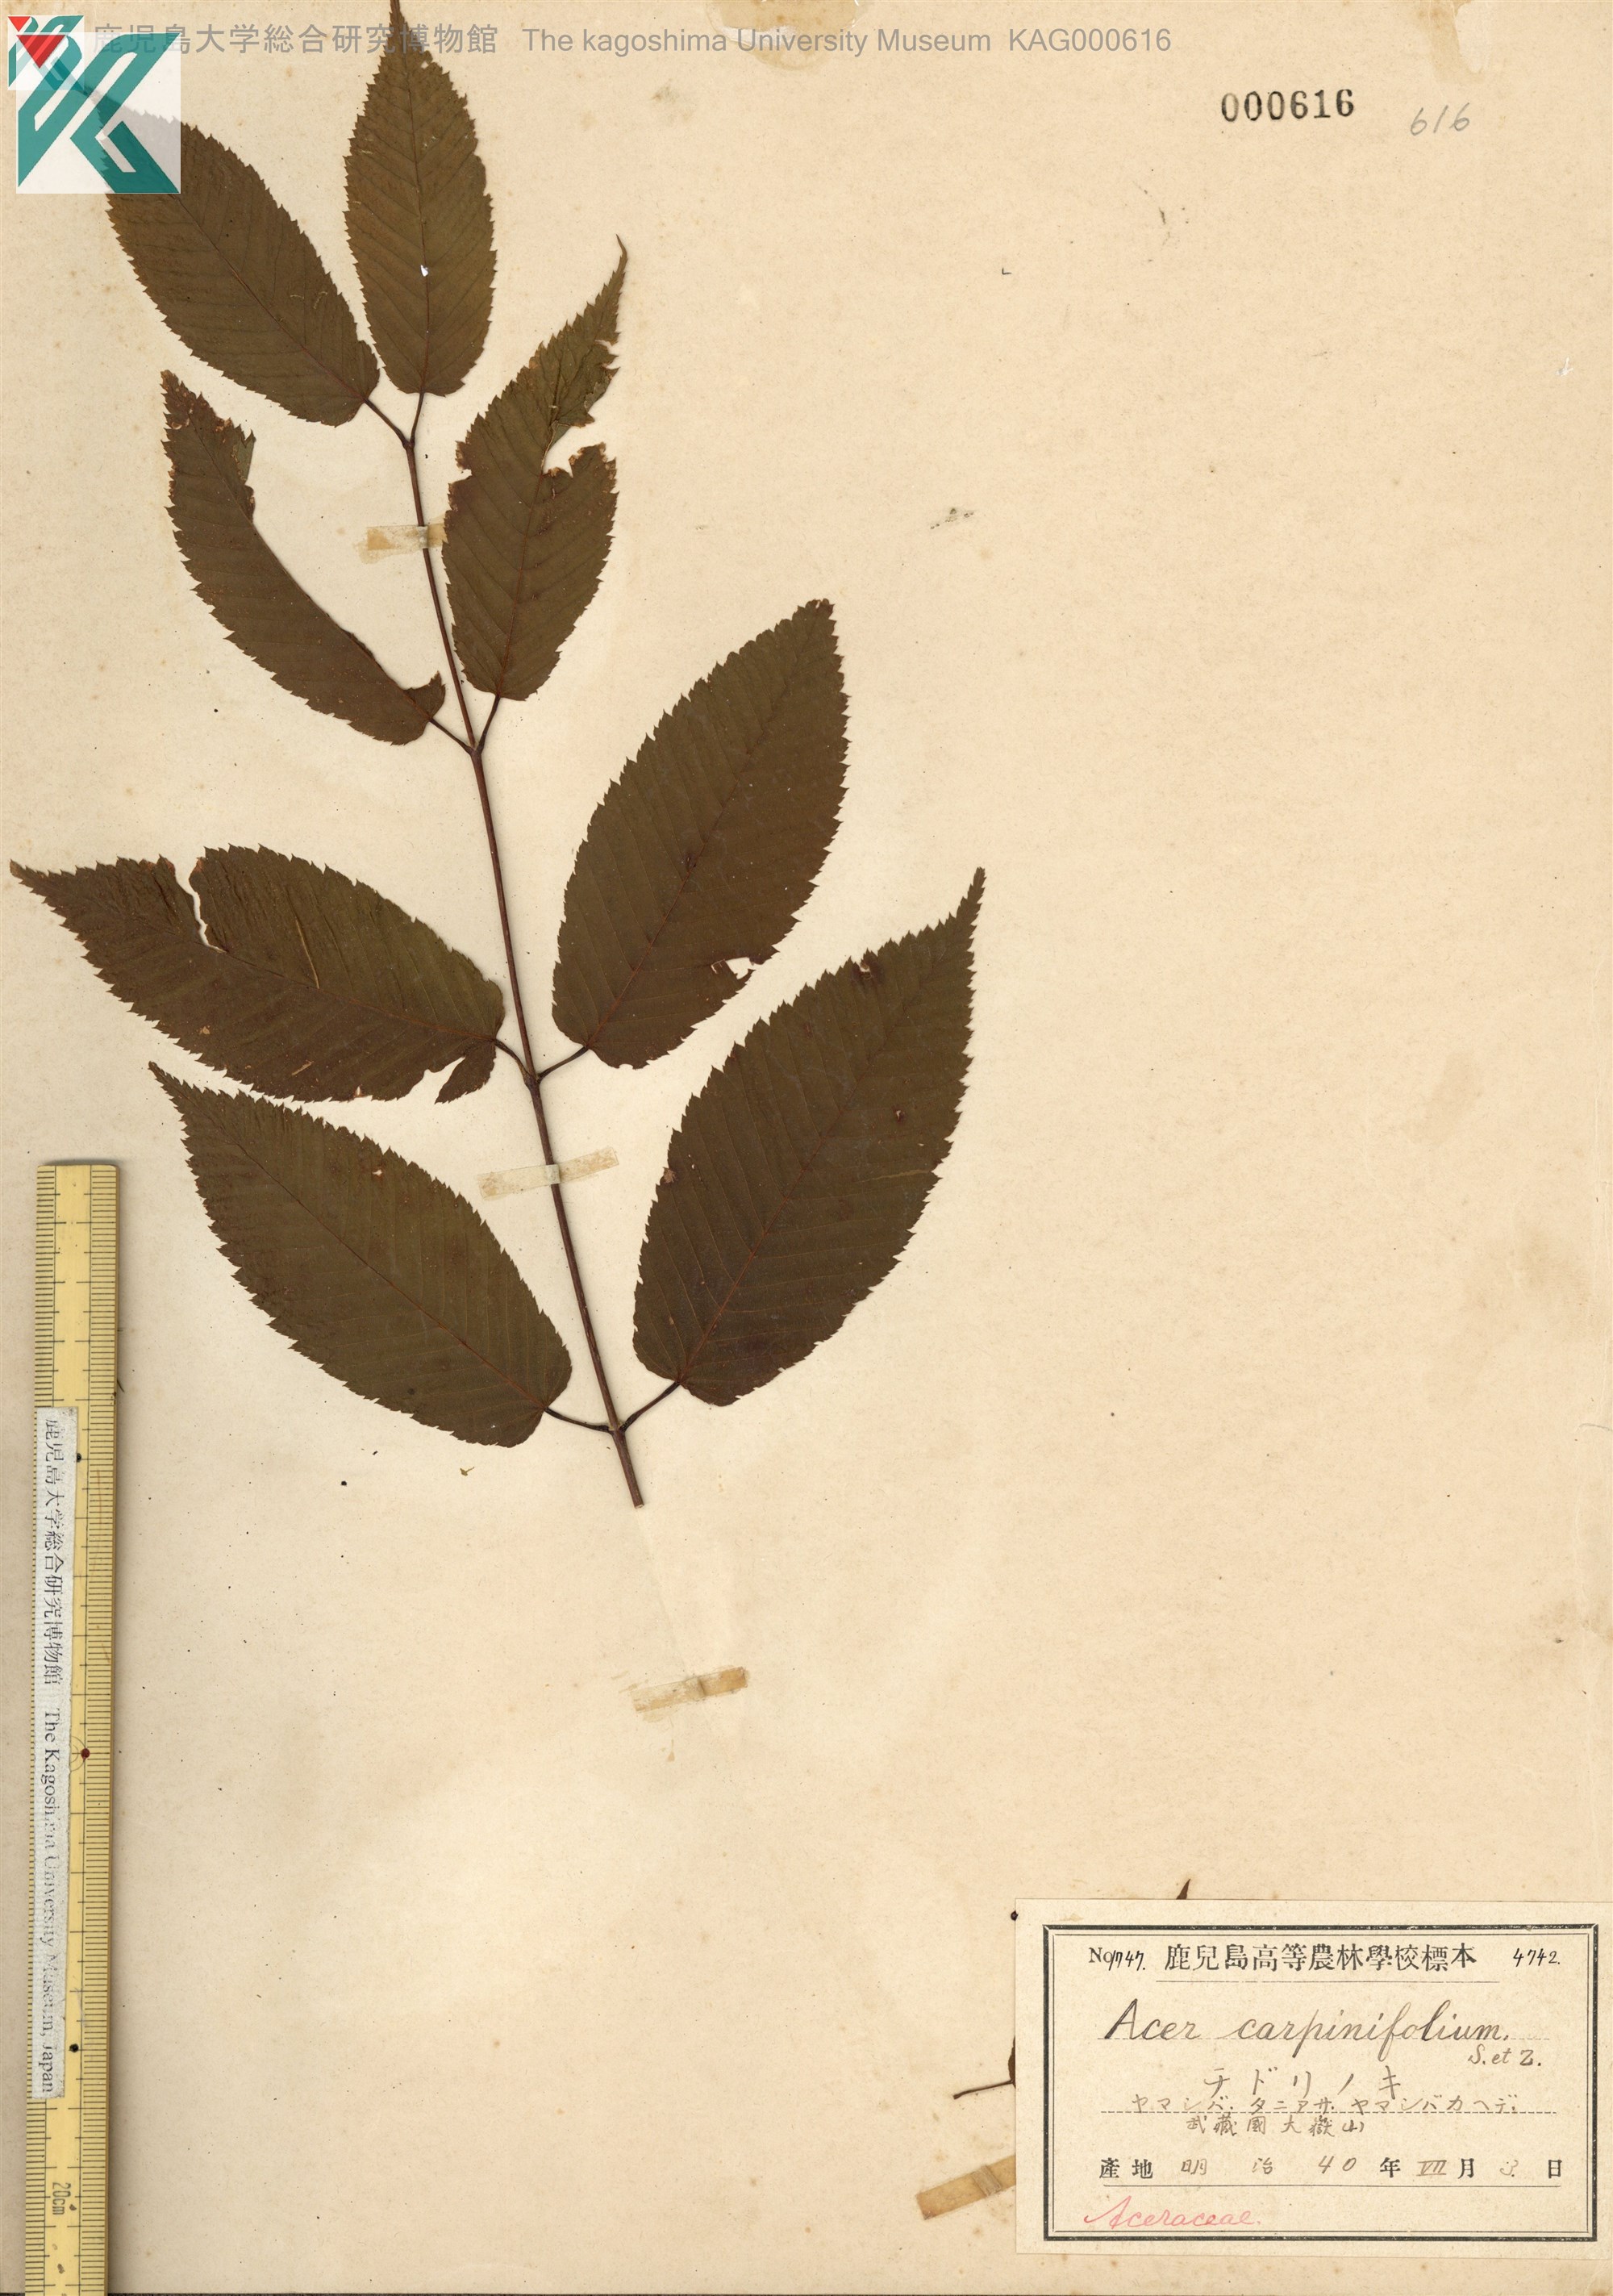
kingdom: Plantae
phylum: Tracheophyta
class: Magnoliopsida
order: Sapindales
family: Sapindaceae
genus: Acer
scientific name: Acer carpinifolium
